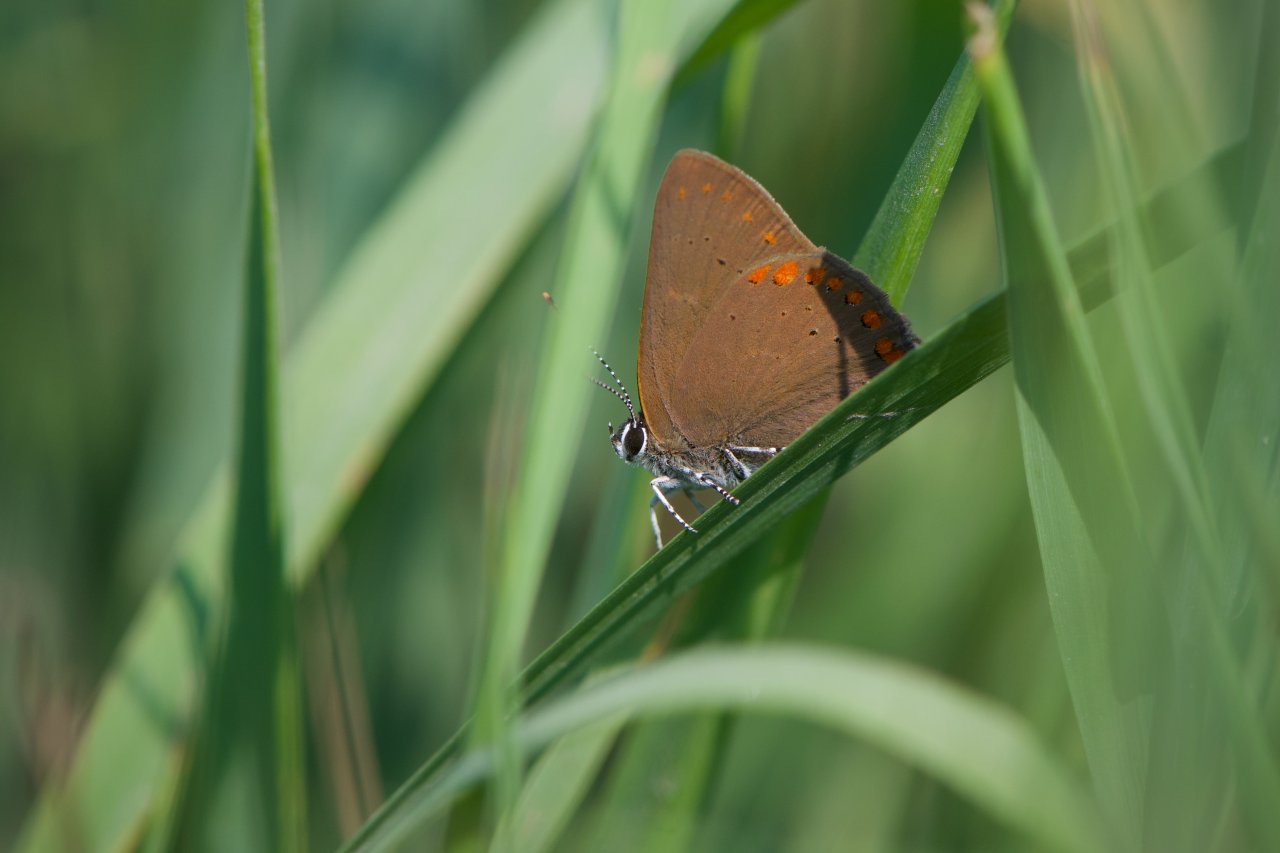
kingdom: Animalia
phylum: Arthropoda
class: Insecta
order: Lepidoptera
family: Lycaenidae
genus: Harkenclenus
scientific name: Harkenclenus titus
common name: Coral Hairstreak
